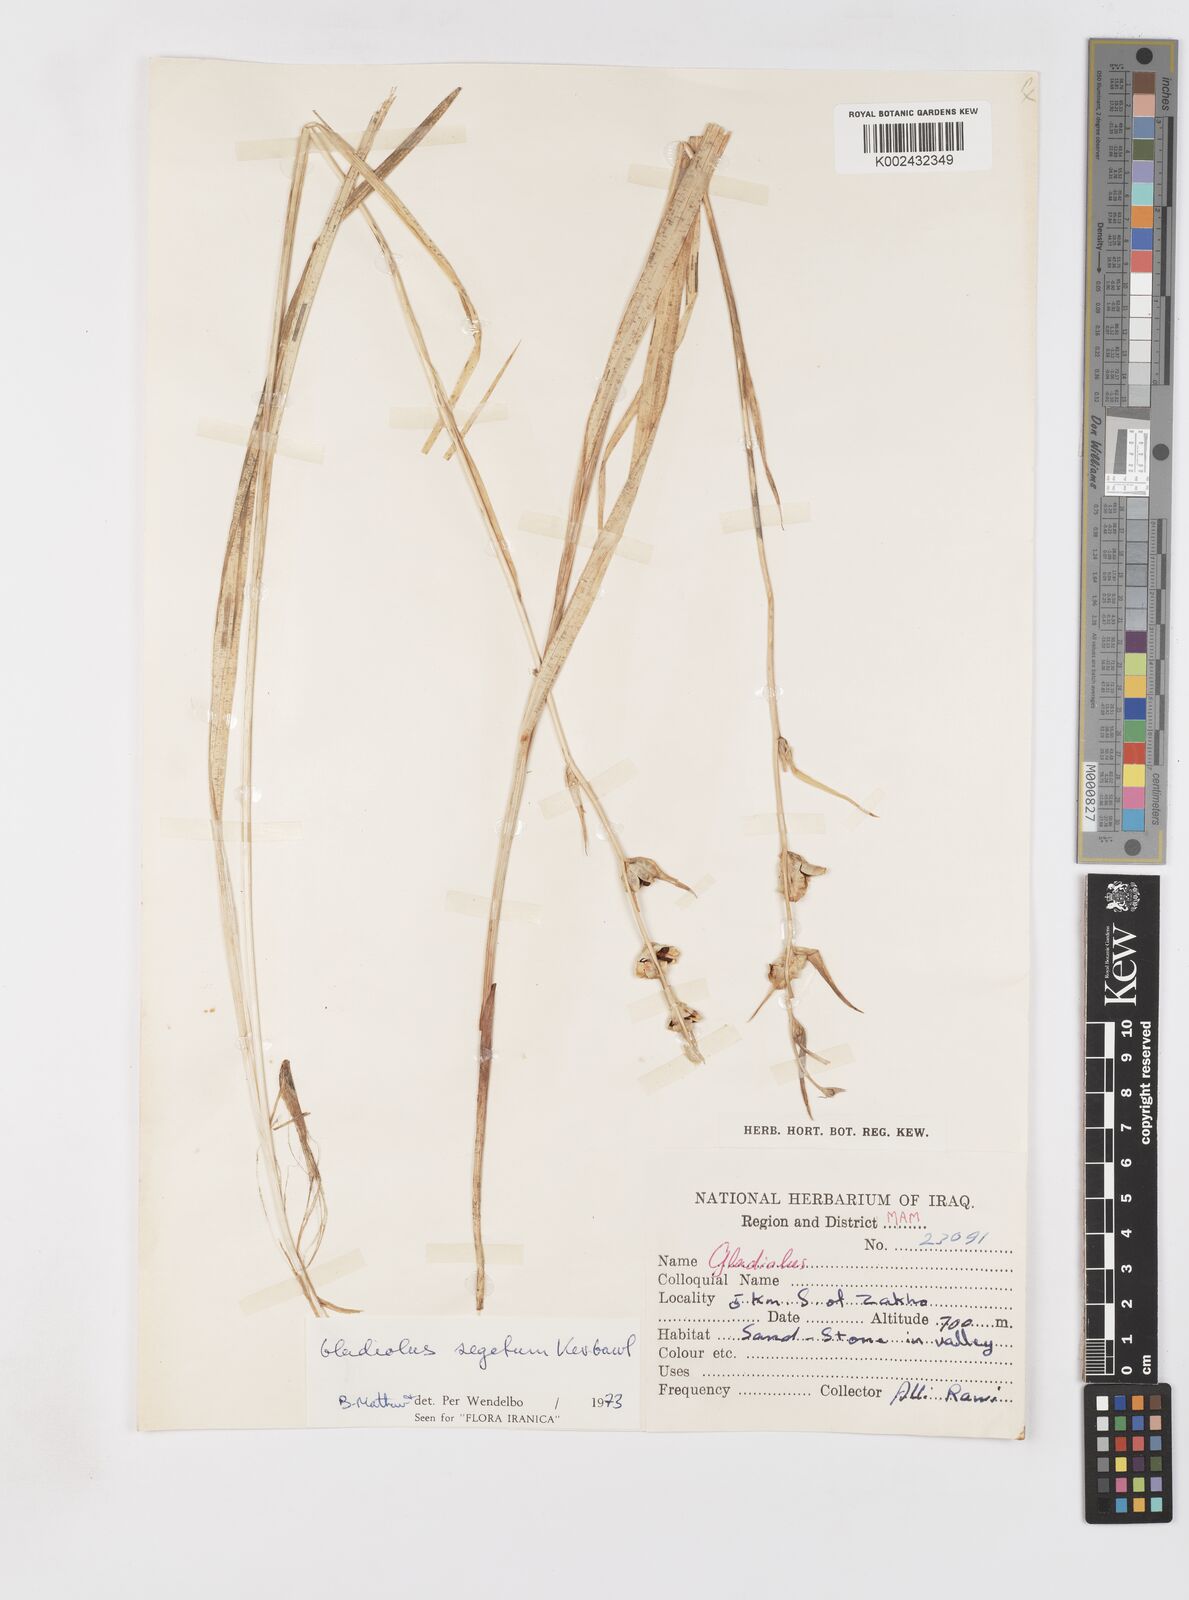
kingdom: Plantae
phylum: Tracheophyta
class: Liliopsida
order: Asparagales
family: Iridaceae
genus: Gladiolus
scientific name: Gladiolus italicus
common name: Field gladiolus
